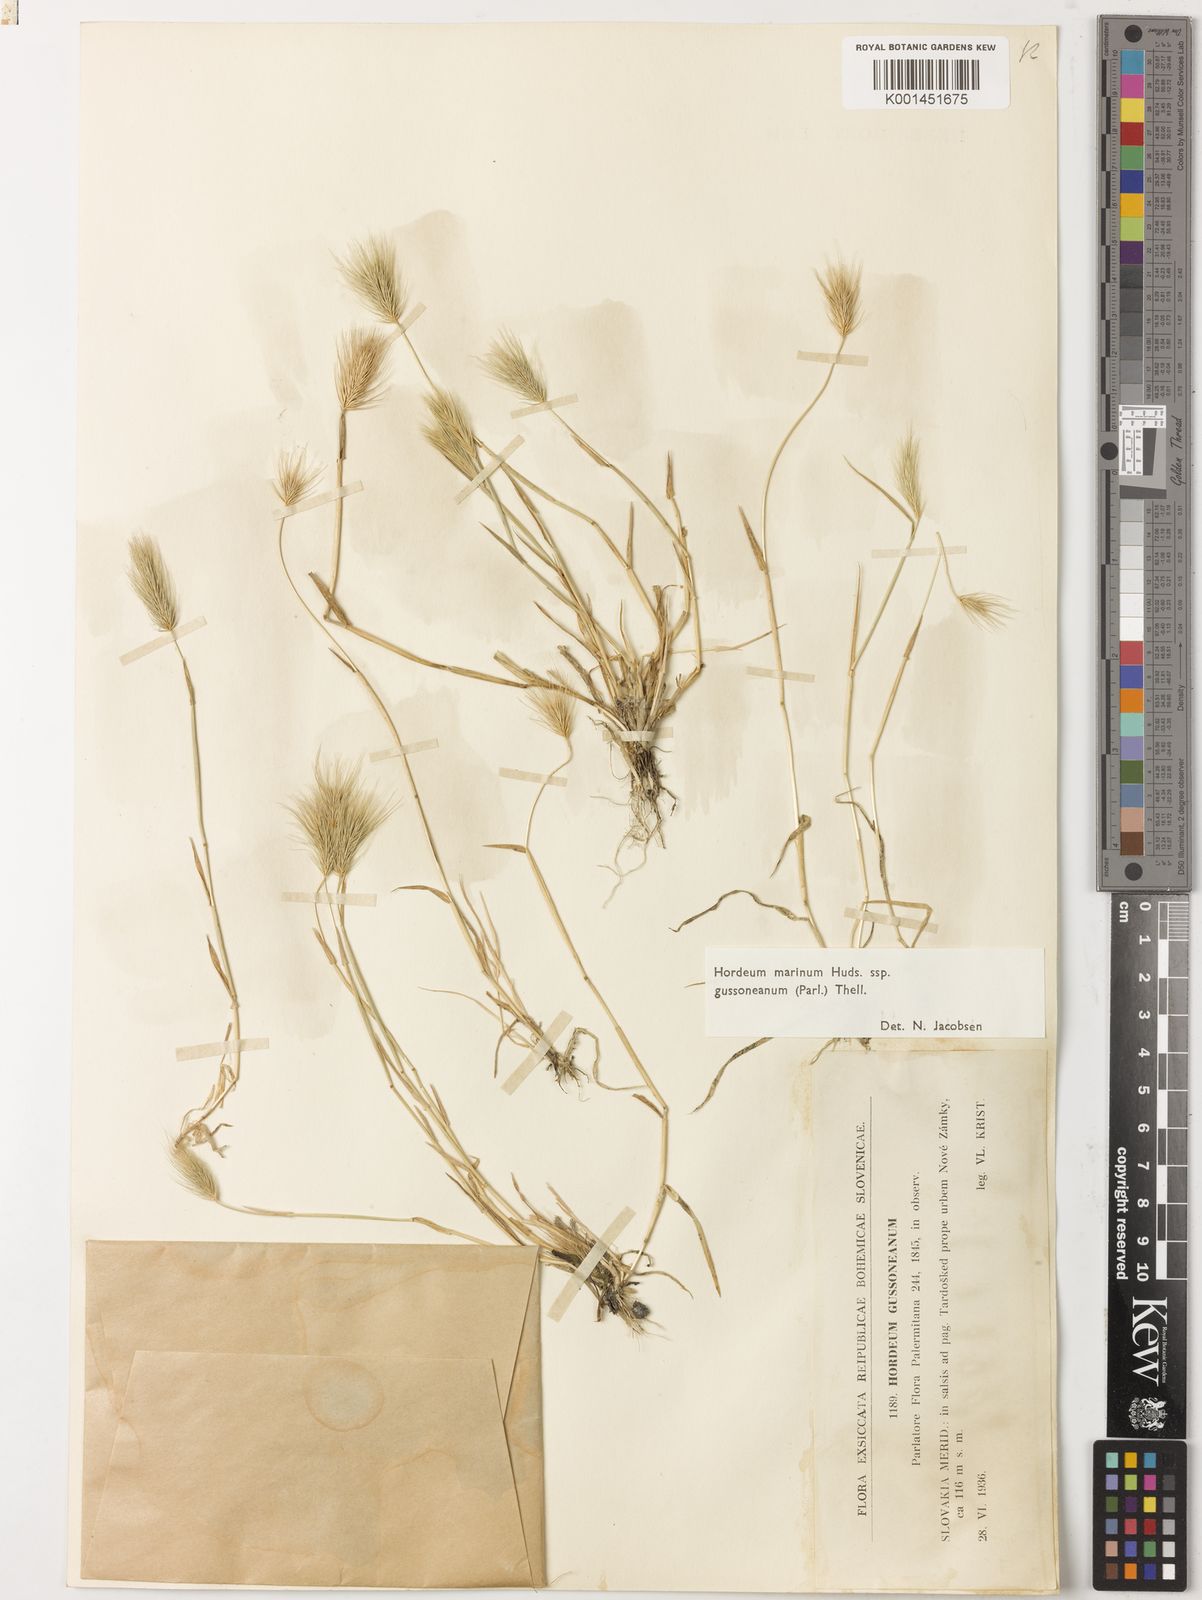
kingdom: Plantae
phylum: Tracheophyta
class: Liliopsida
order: Poales
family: Poaceae
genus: Hordeum
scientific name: Hordeum marinum
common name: Sea barley
